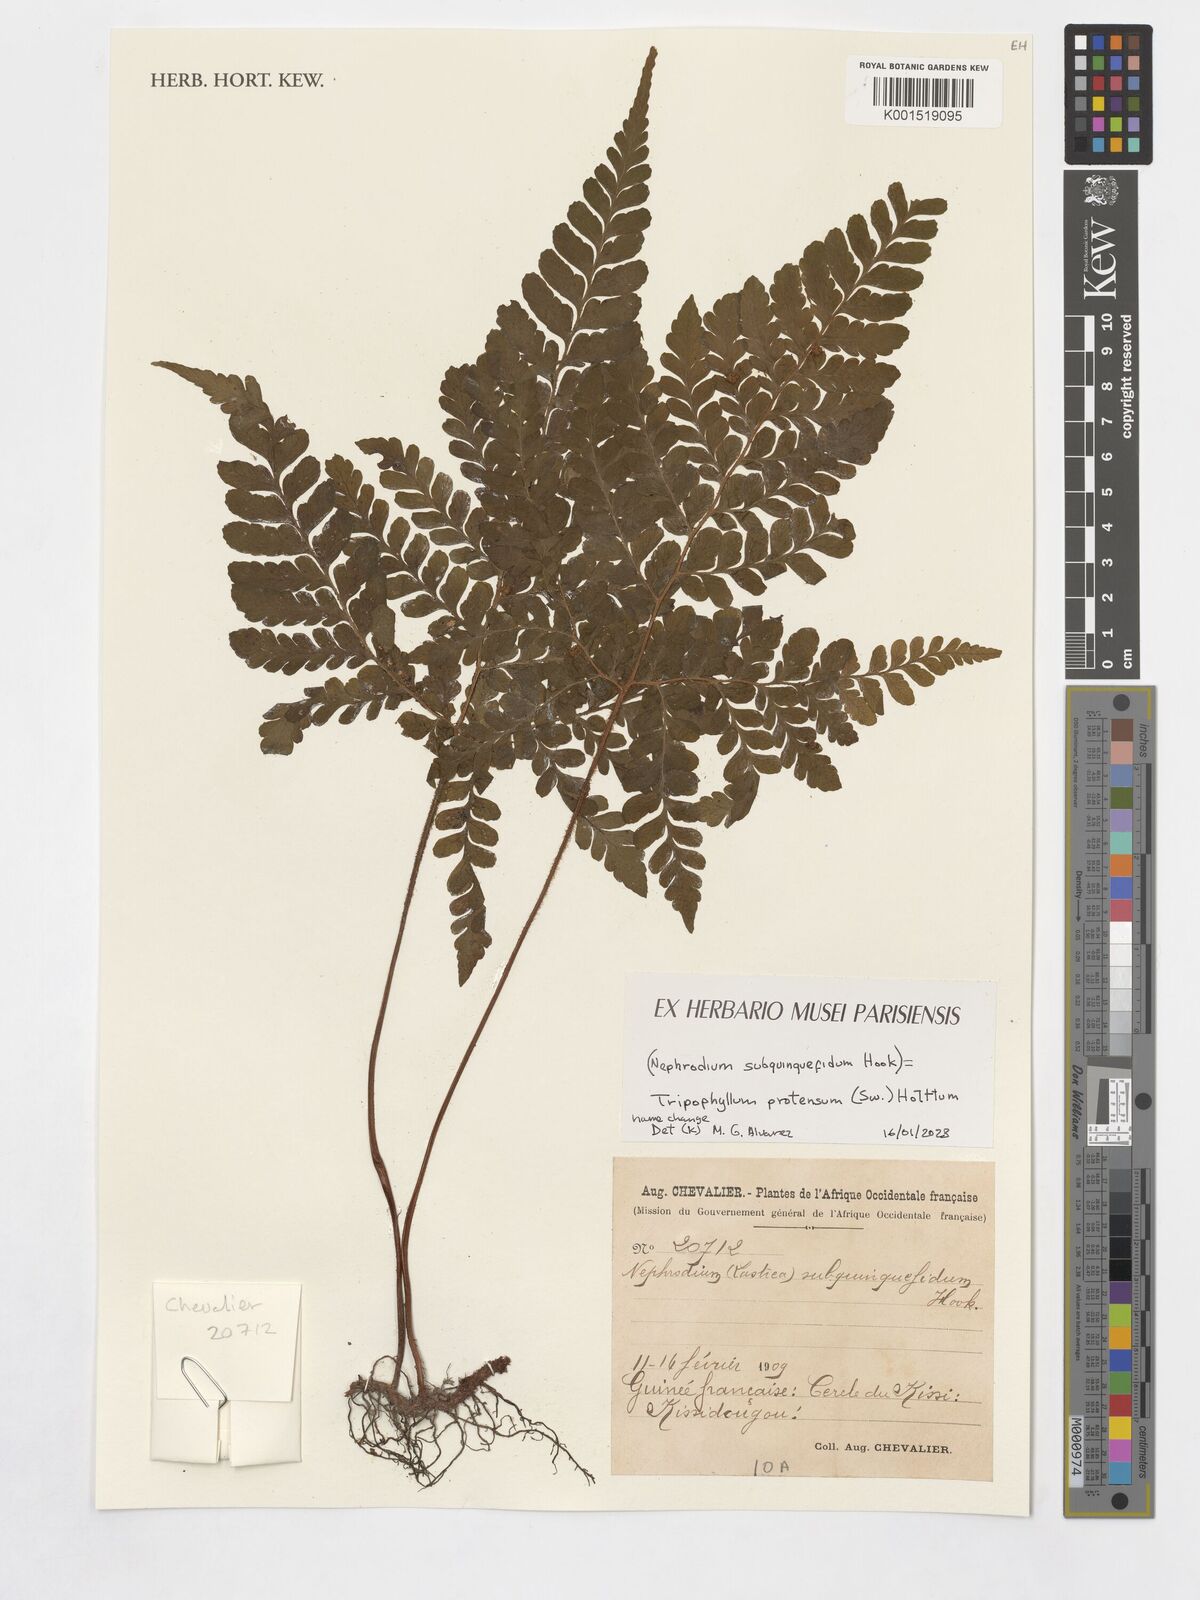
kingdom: Plantae
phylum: Tracheophyta
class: Polypodiopsida
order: Polypodiales
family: Tectariaceae
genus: Triplophyllum
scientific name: Triplophyllum protensum
